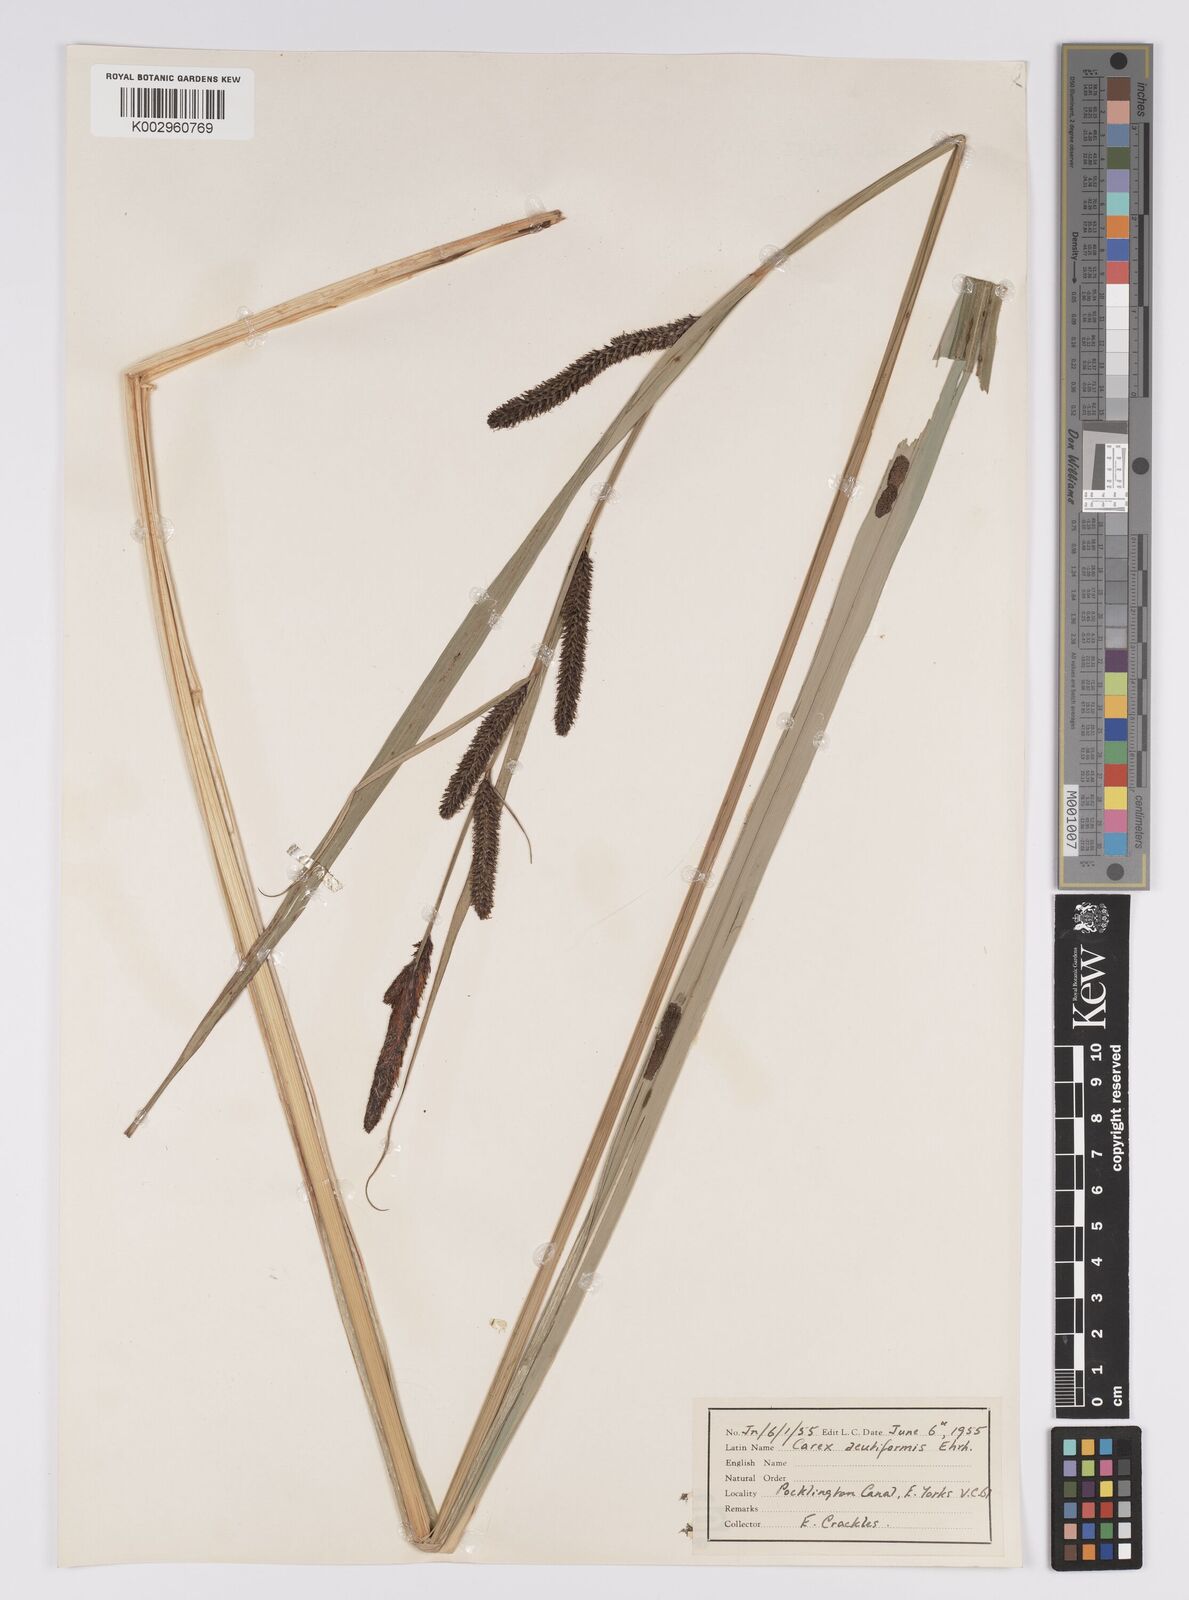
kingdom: Plantae
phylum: Tracheophyta
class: Liliopsida
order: Poales
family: Cyperaceae
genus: Carex
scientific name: Carex acutiformis
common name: Lesser pond-sedge
